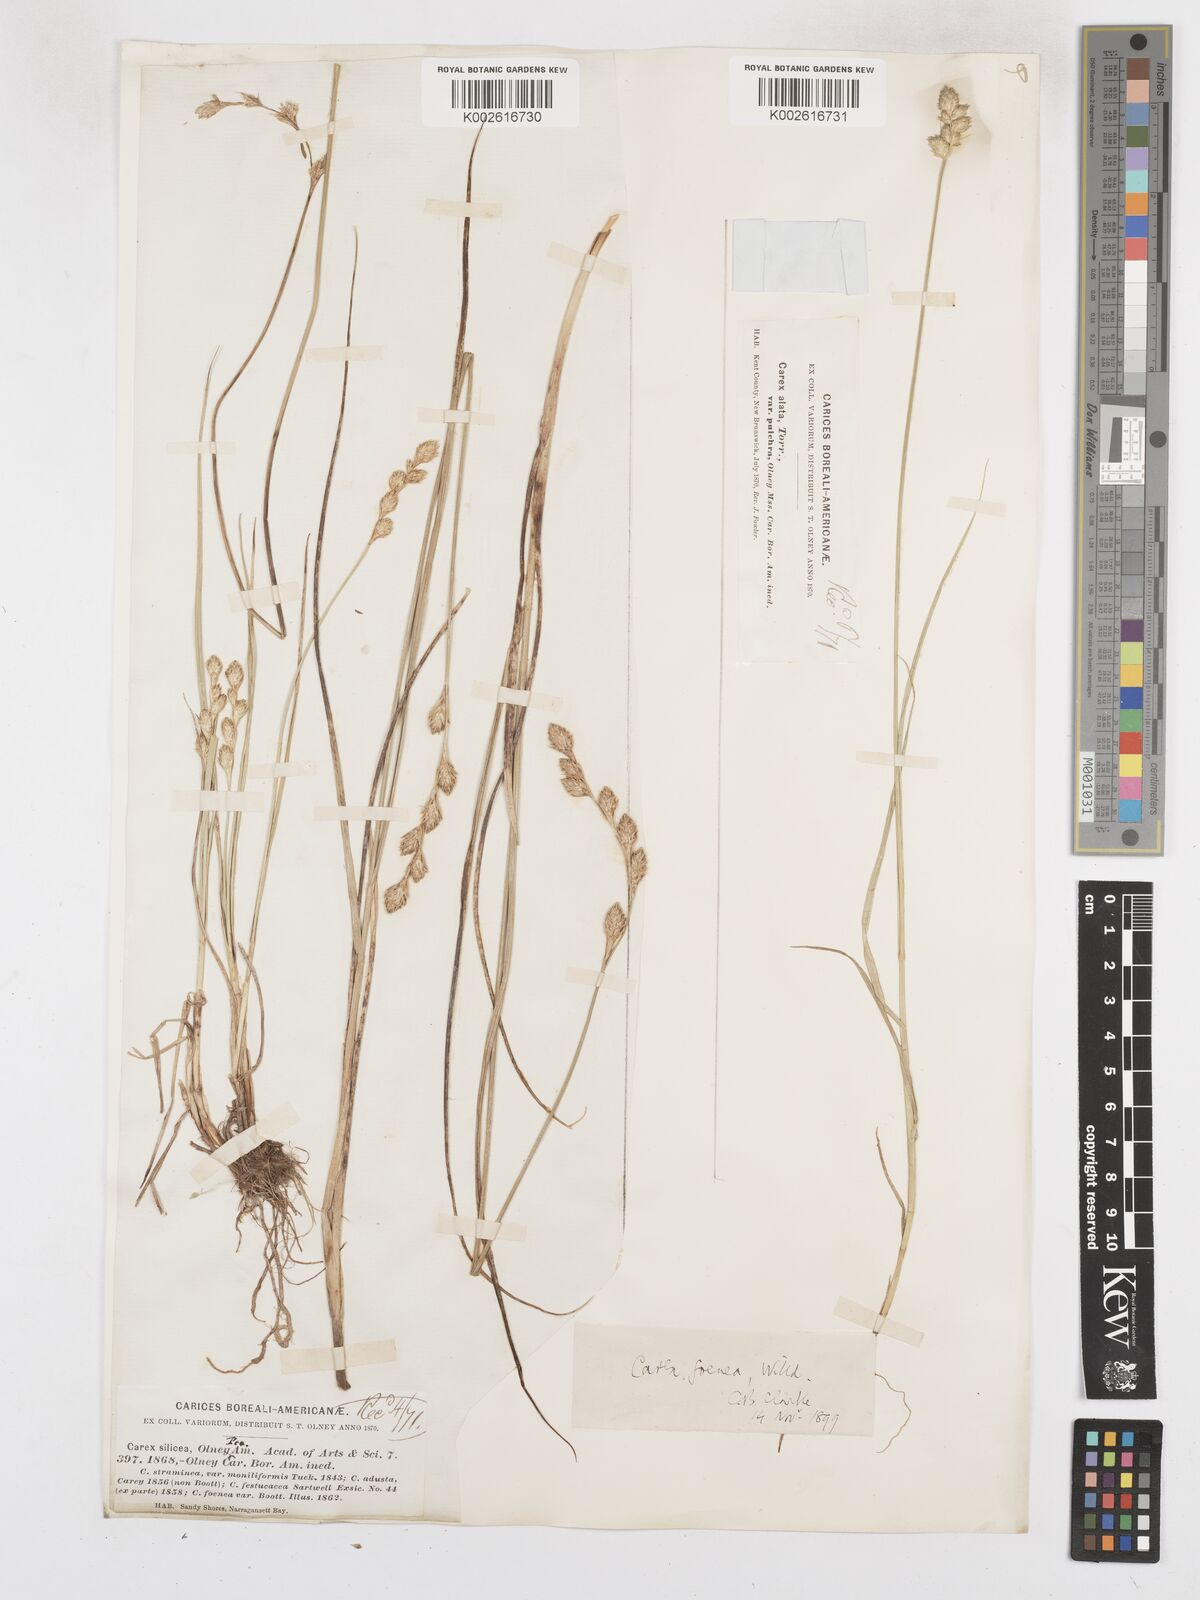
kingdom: Plantae
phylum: Tracheophyta
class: Liliopsida
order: Poales
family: Cyperaceae
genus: Carex
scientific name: Carex argyrantha
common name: Silvery-flowered sedge
